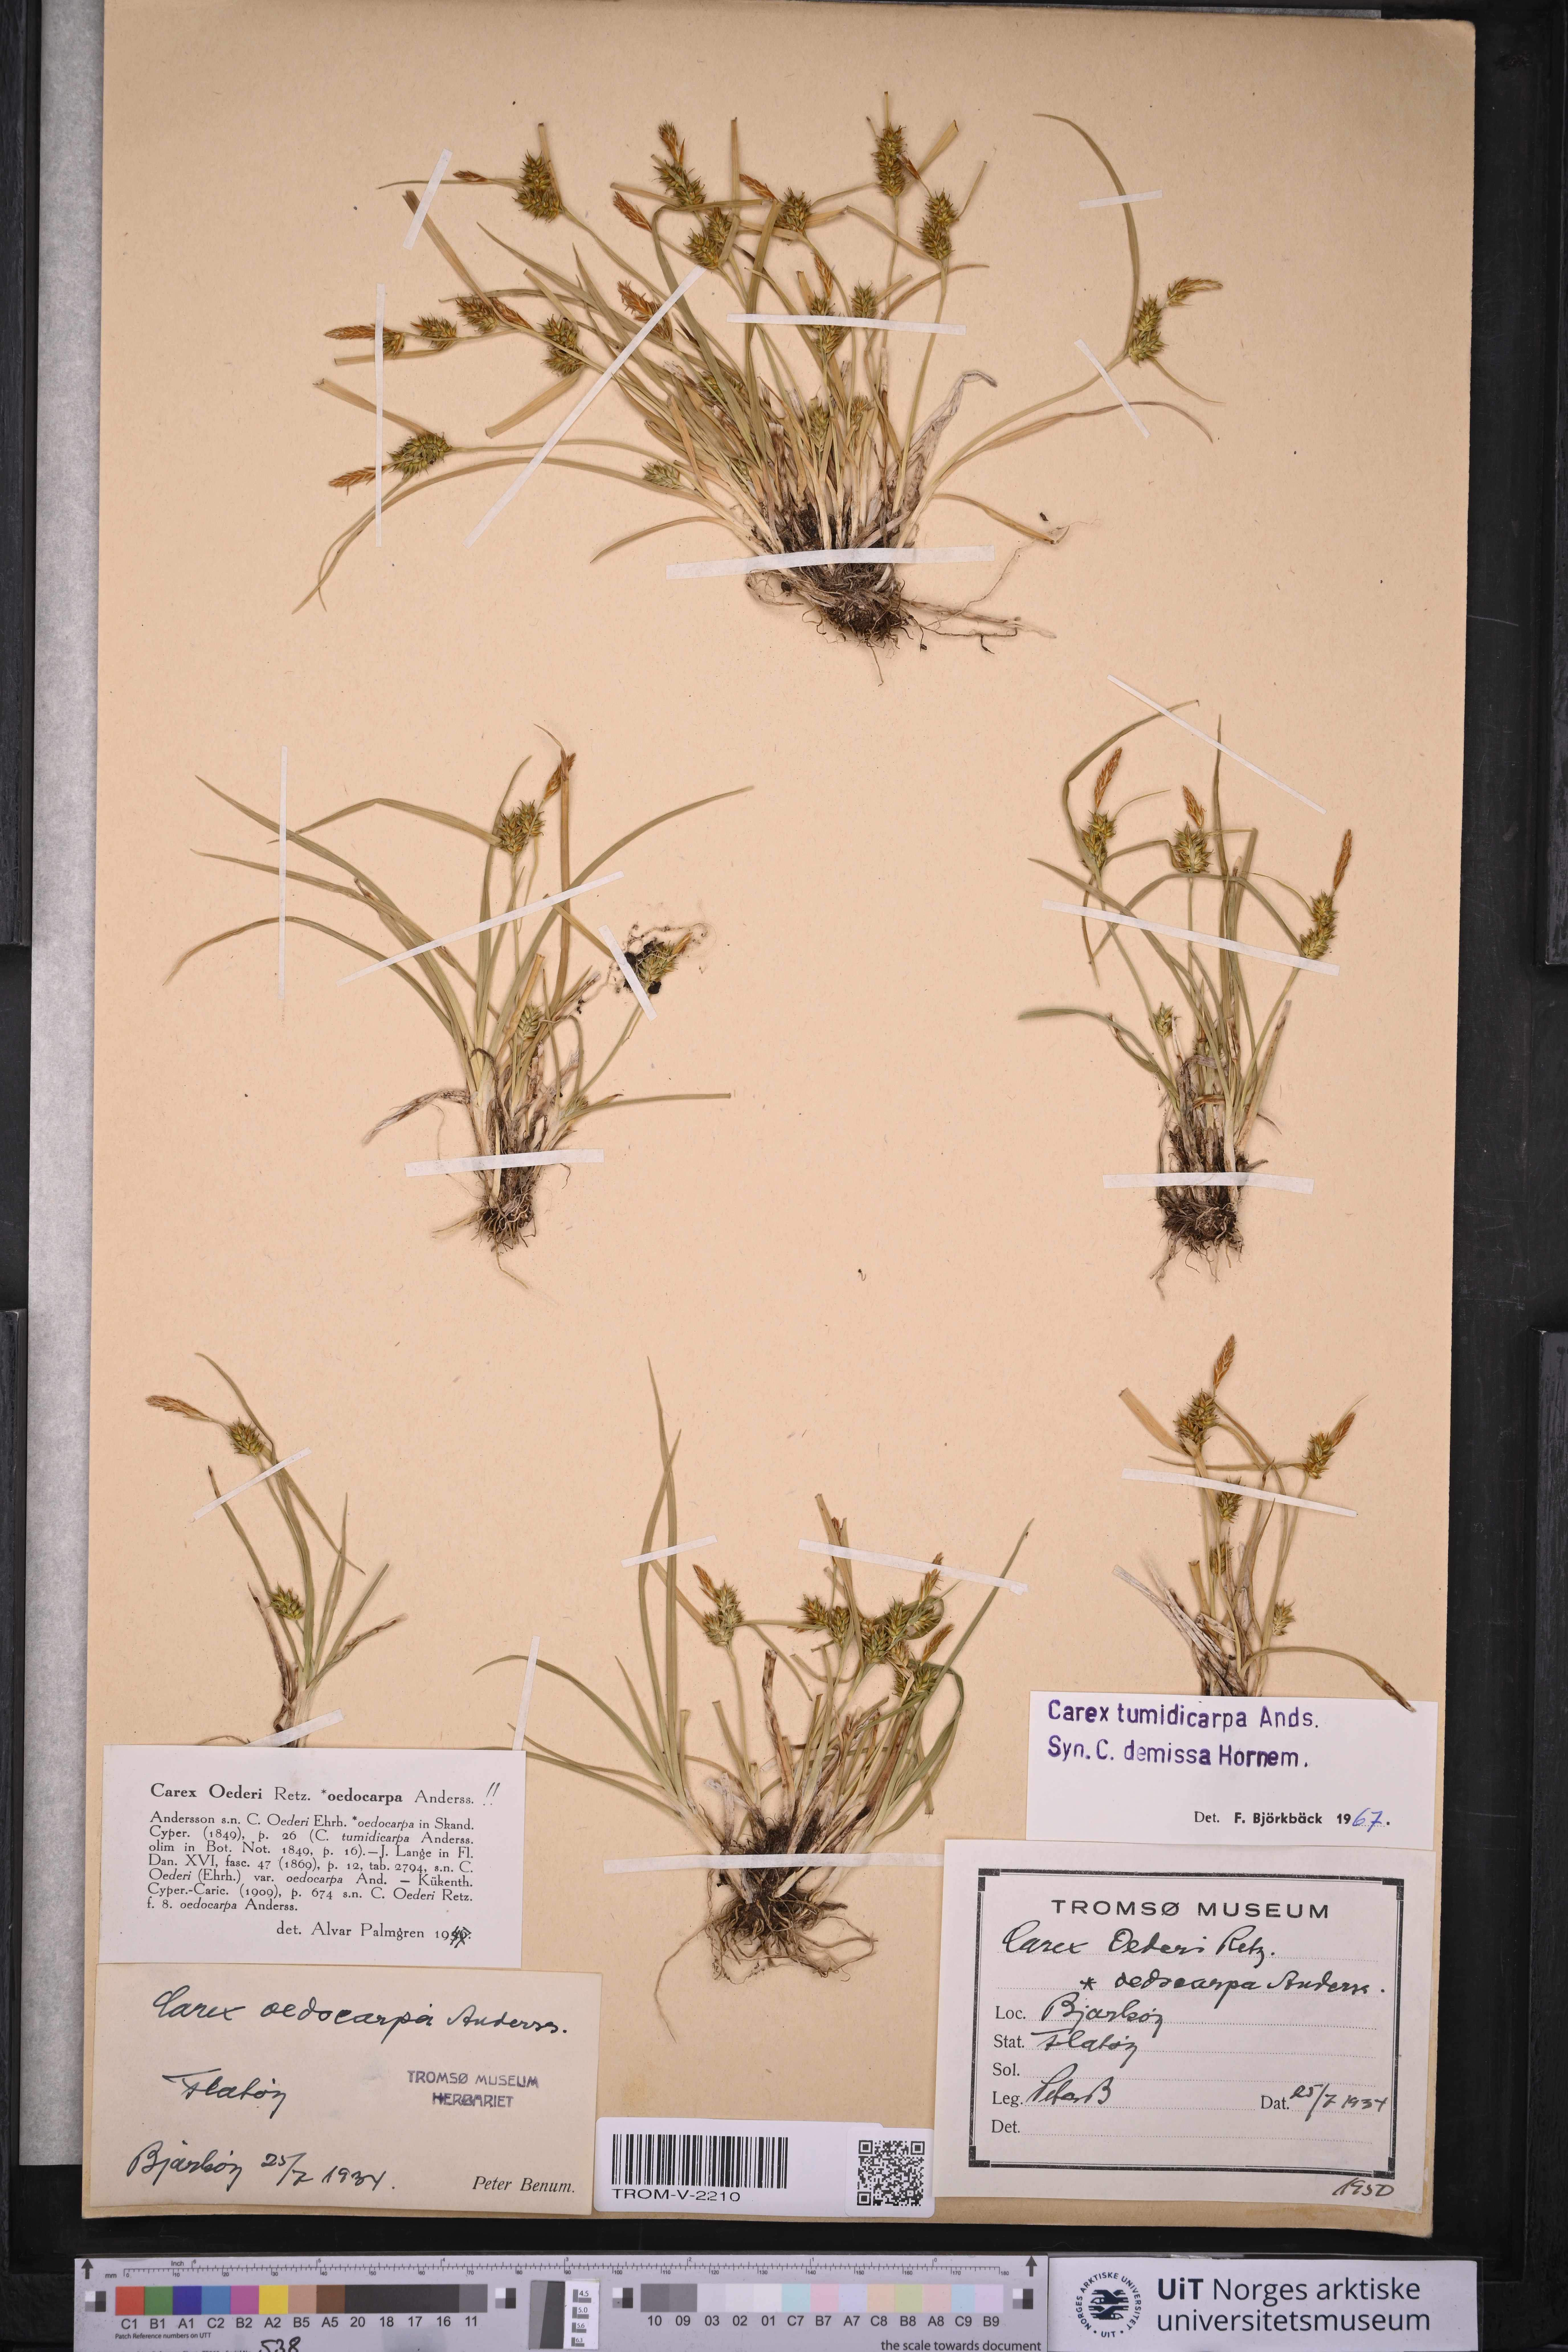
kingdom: Plantae
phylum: Tracheophyta
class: Liliopsida
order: Poales
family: Cyperaceae
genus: Carex
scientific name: Carex demissa
